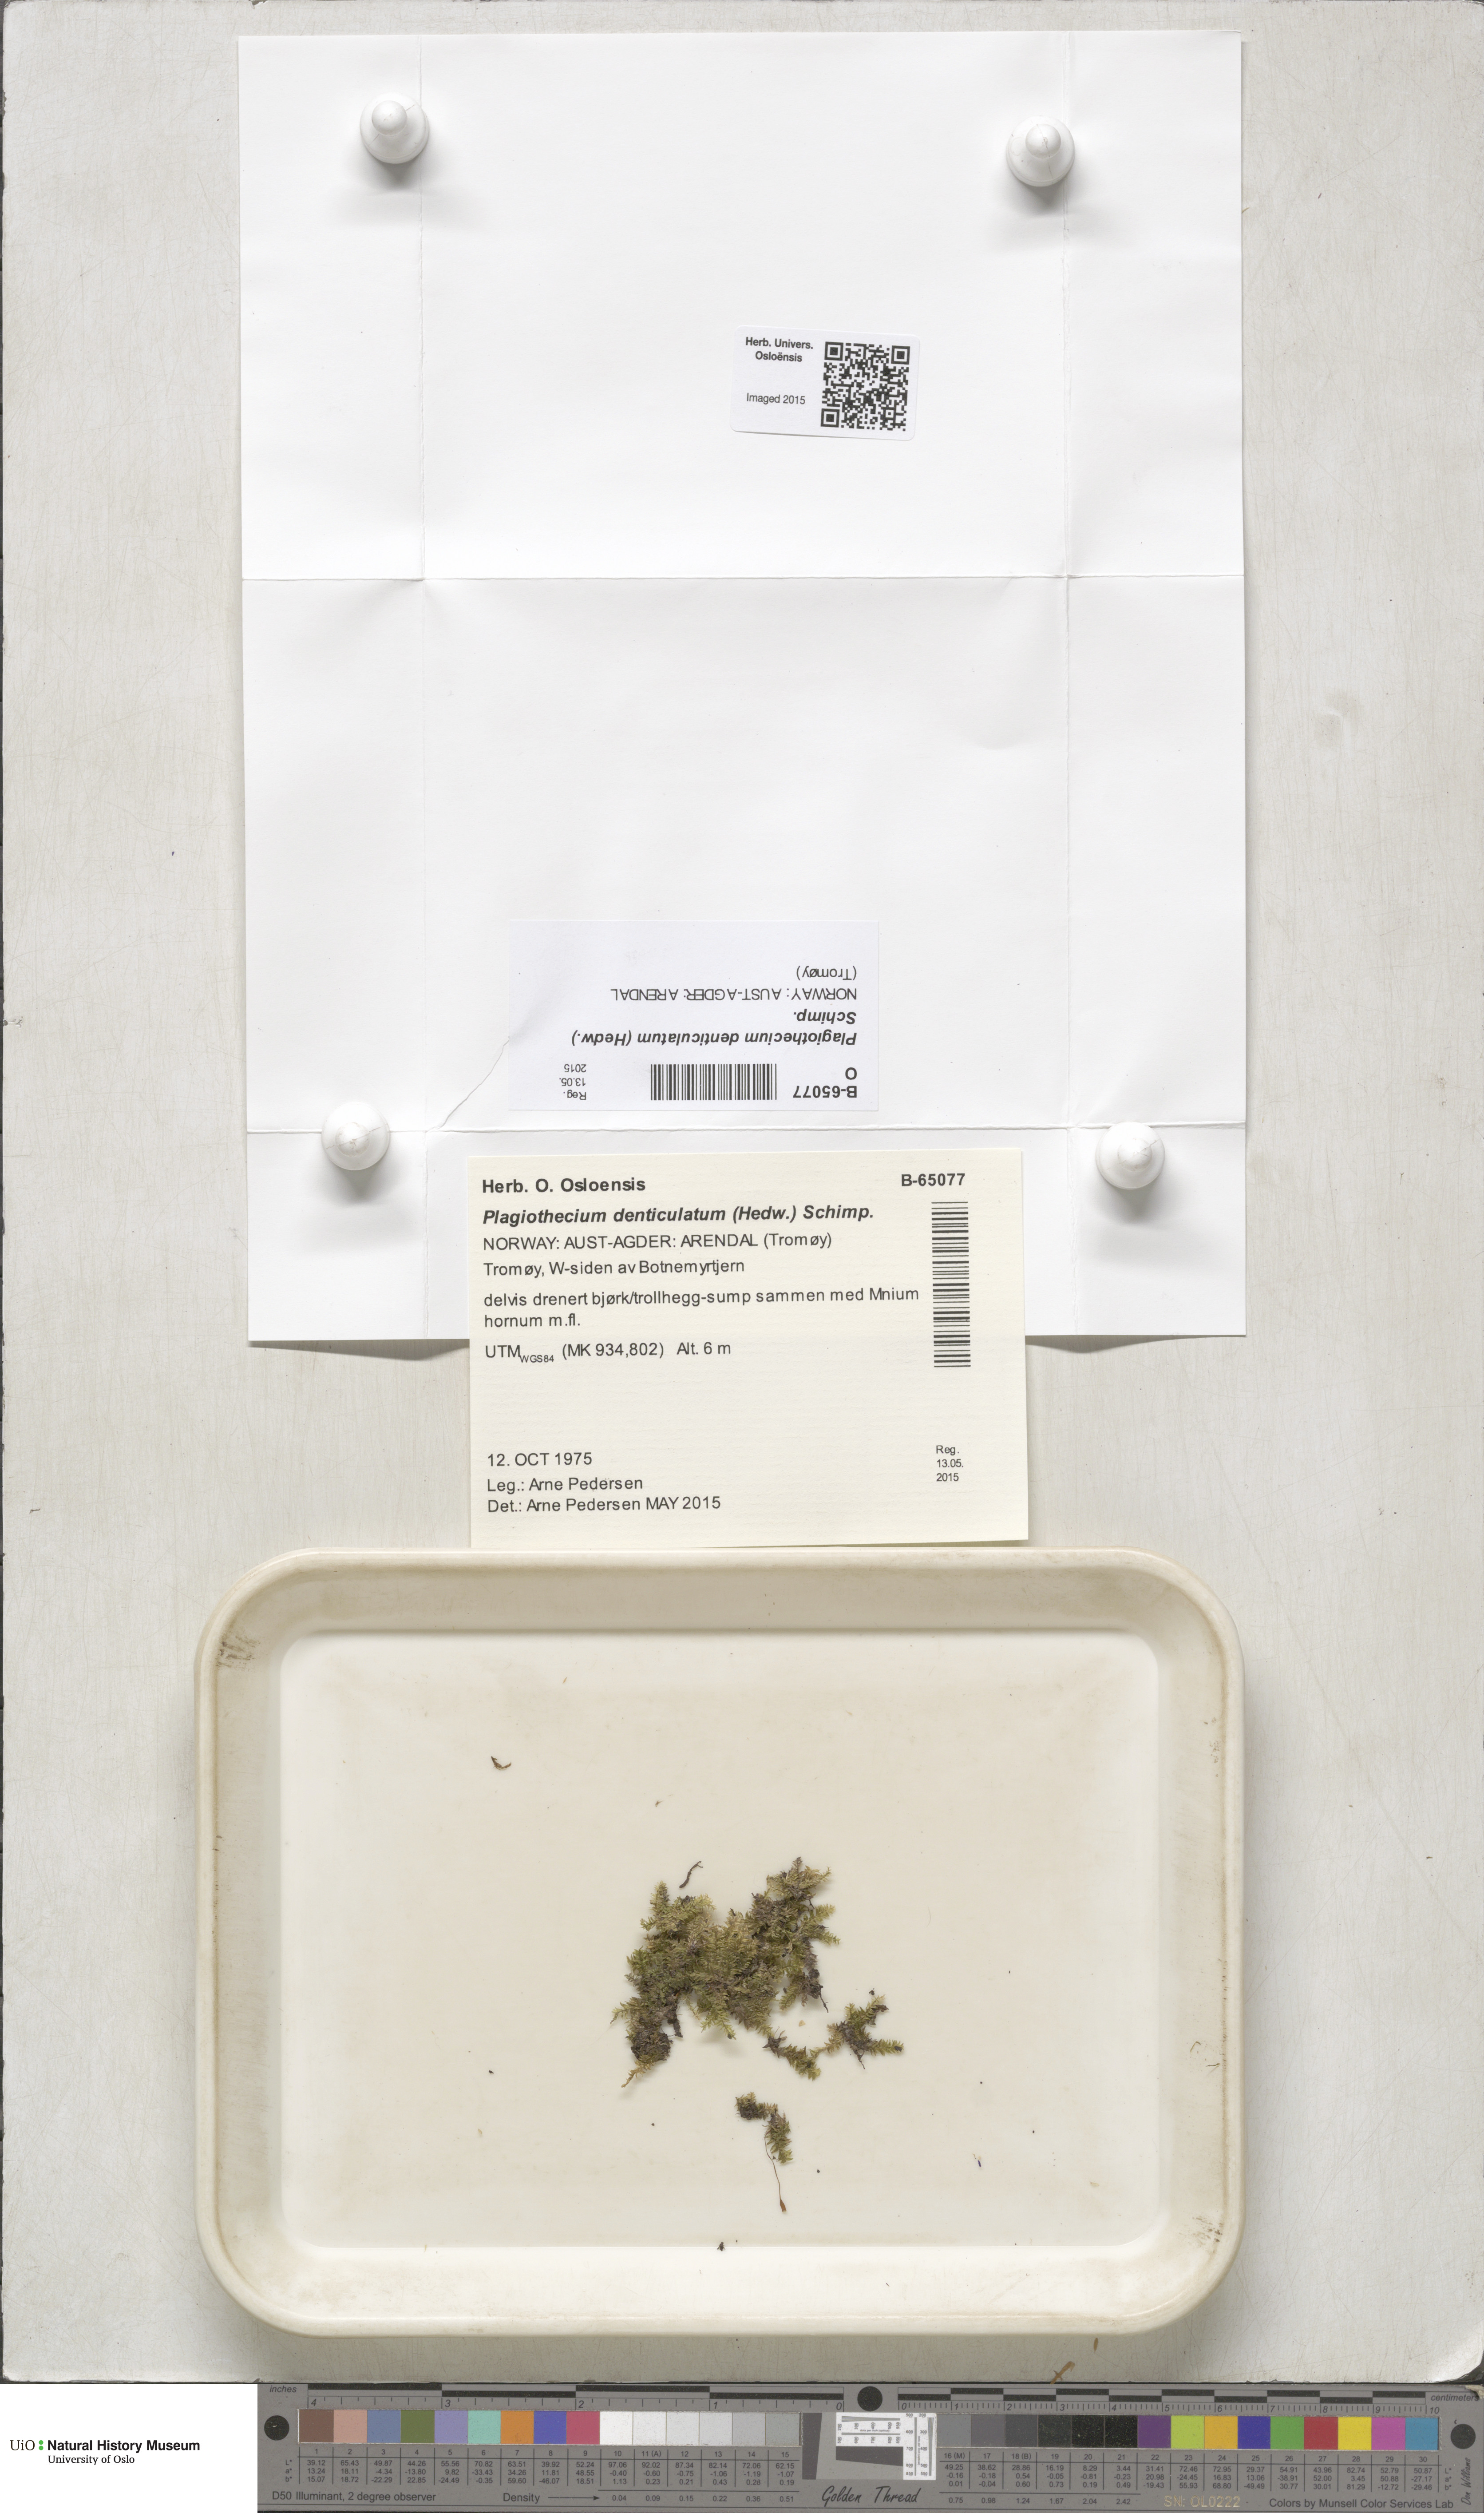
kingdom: Plantae
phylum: Bryophyta
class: Bryopsida
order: Hypnales
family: Plagiotheciaceae
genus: Plagiothecium
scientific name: Plagiothecium denticulatum
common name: Dented silk moss
